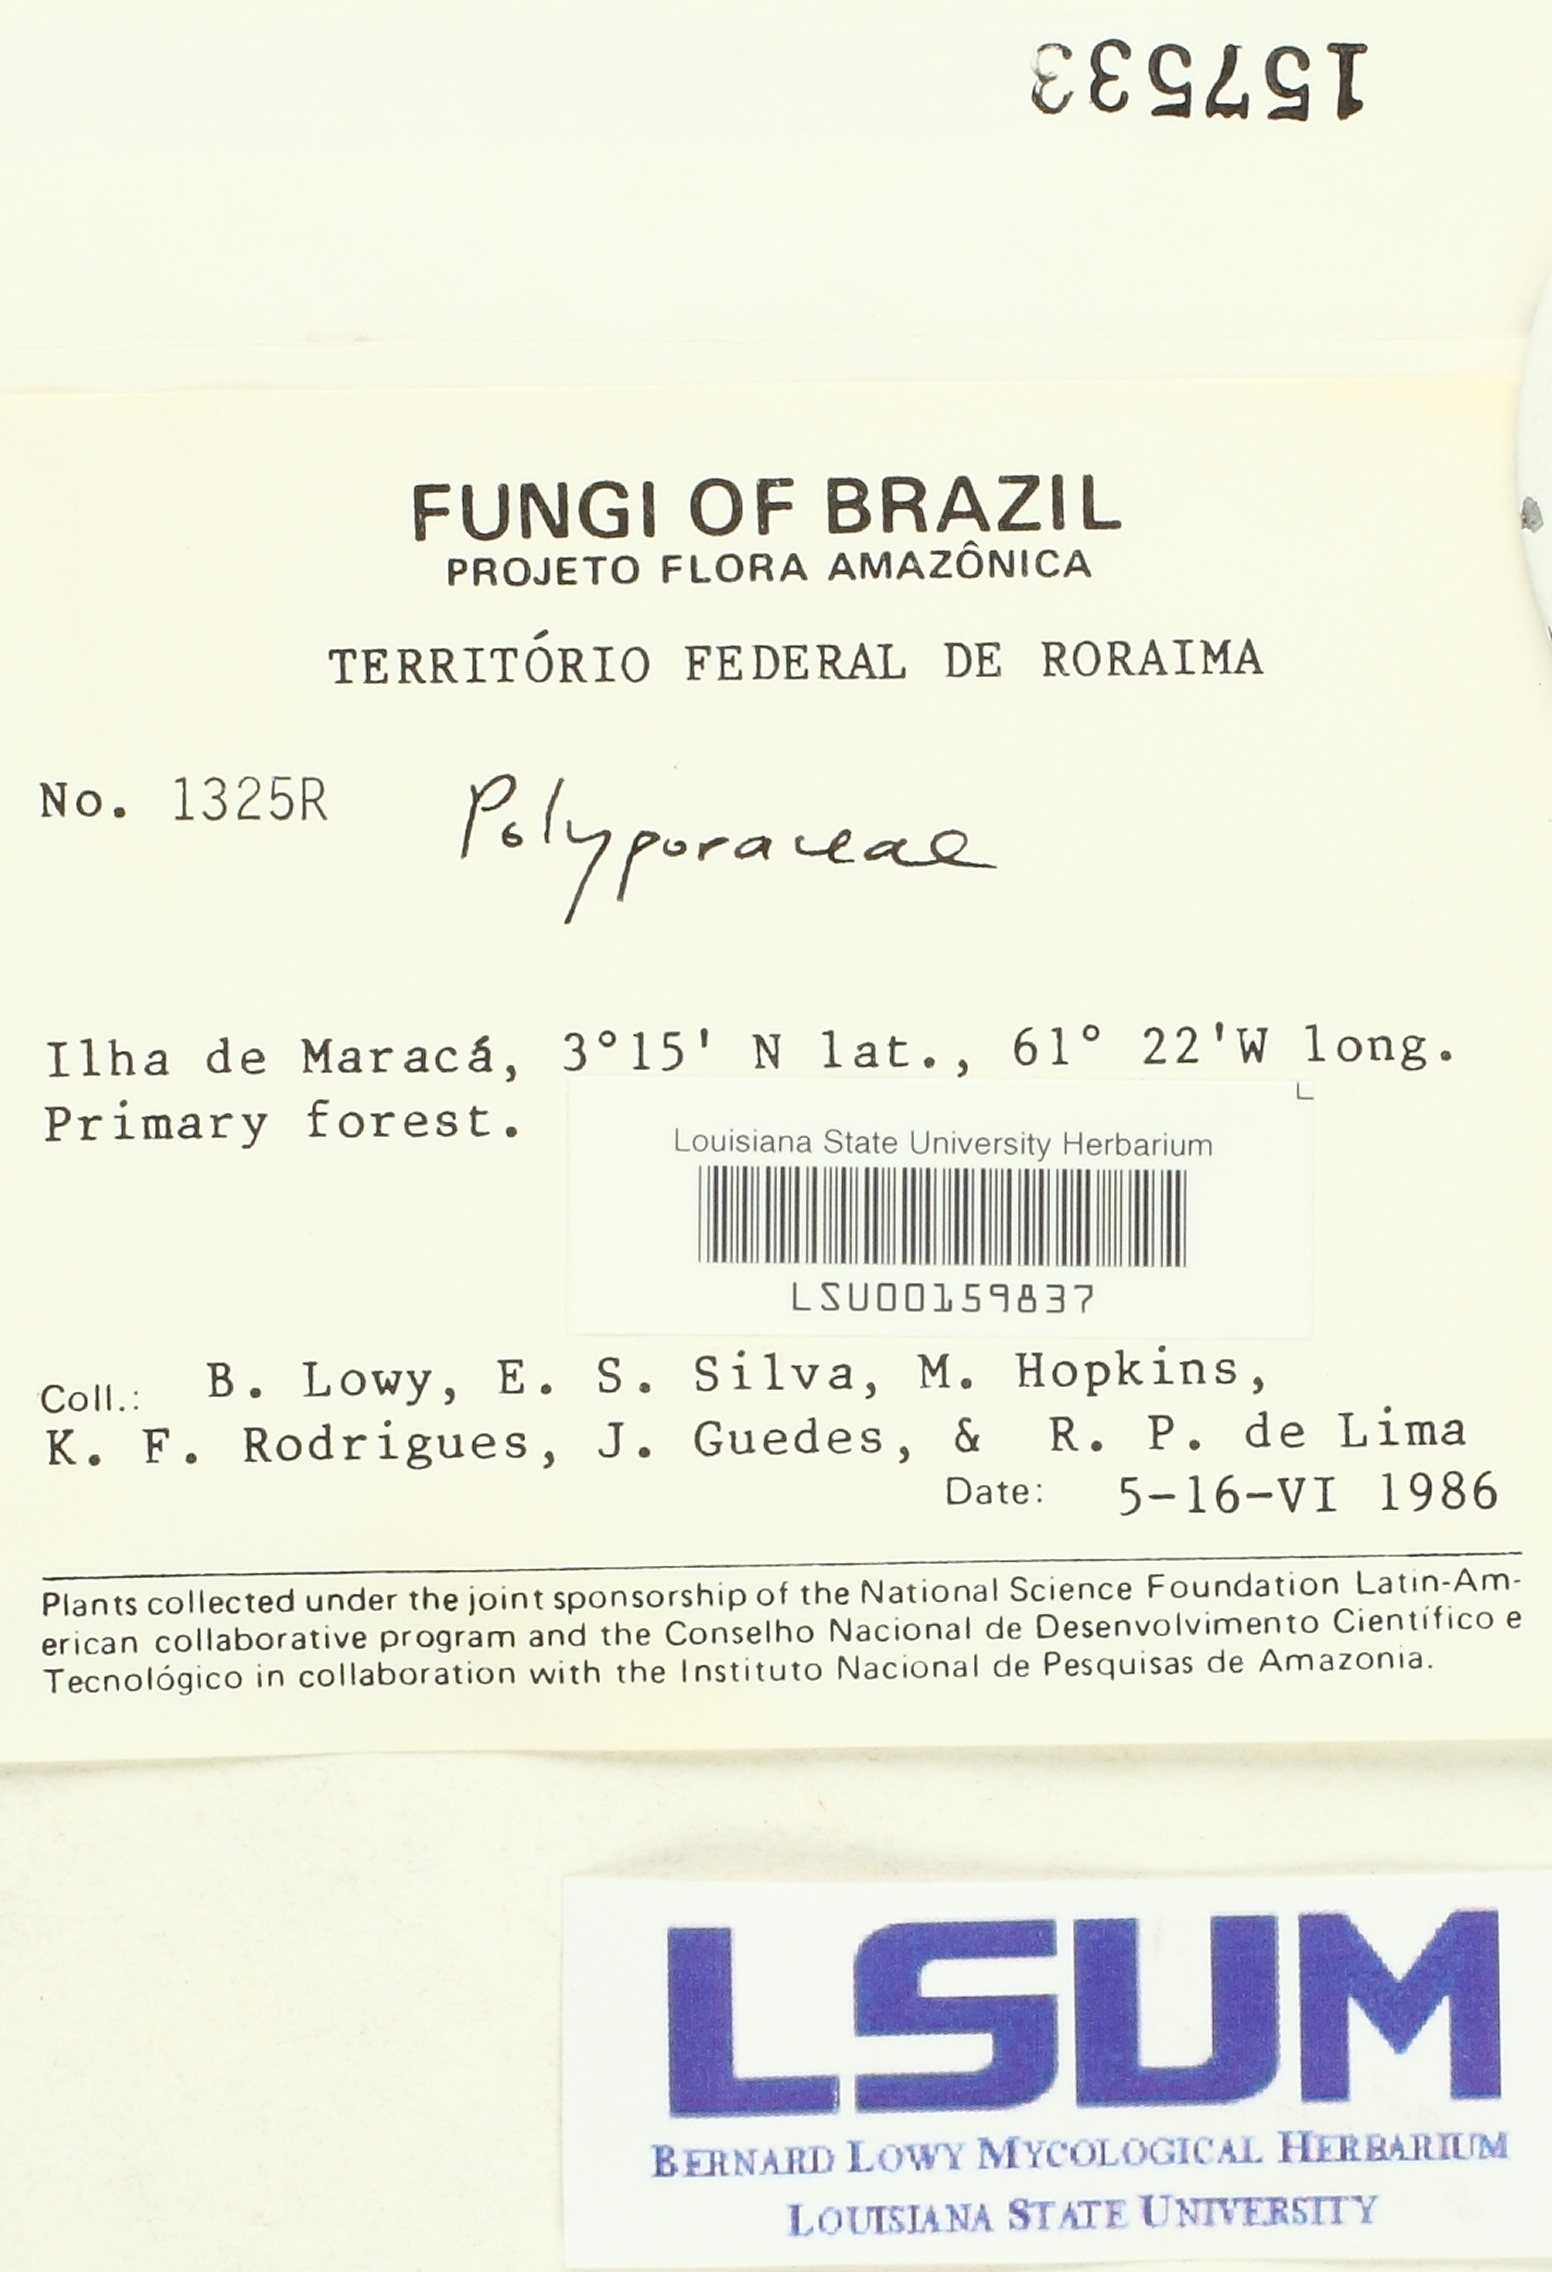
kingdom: Fungi
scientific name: Fungi
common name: Fungi
